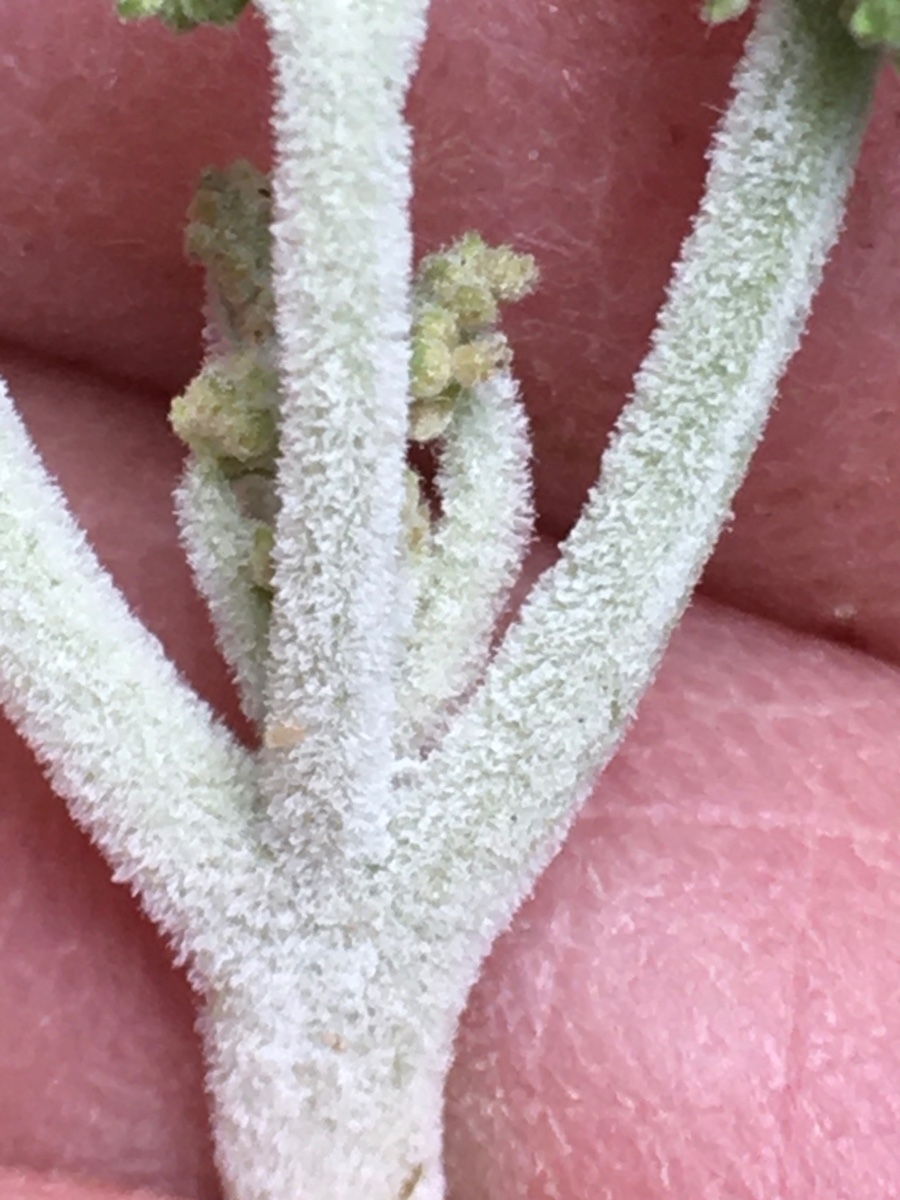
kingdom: Fungi
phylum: Ascomycota
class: Leotiomycetes
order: Helotiales
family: Erysiphaceae
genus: Podosphaera
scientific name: Podosphaera filipendulae
